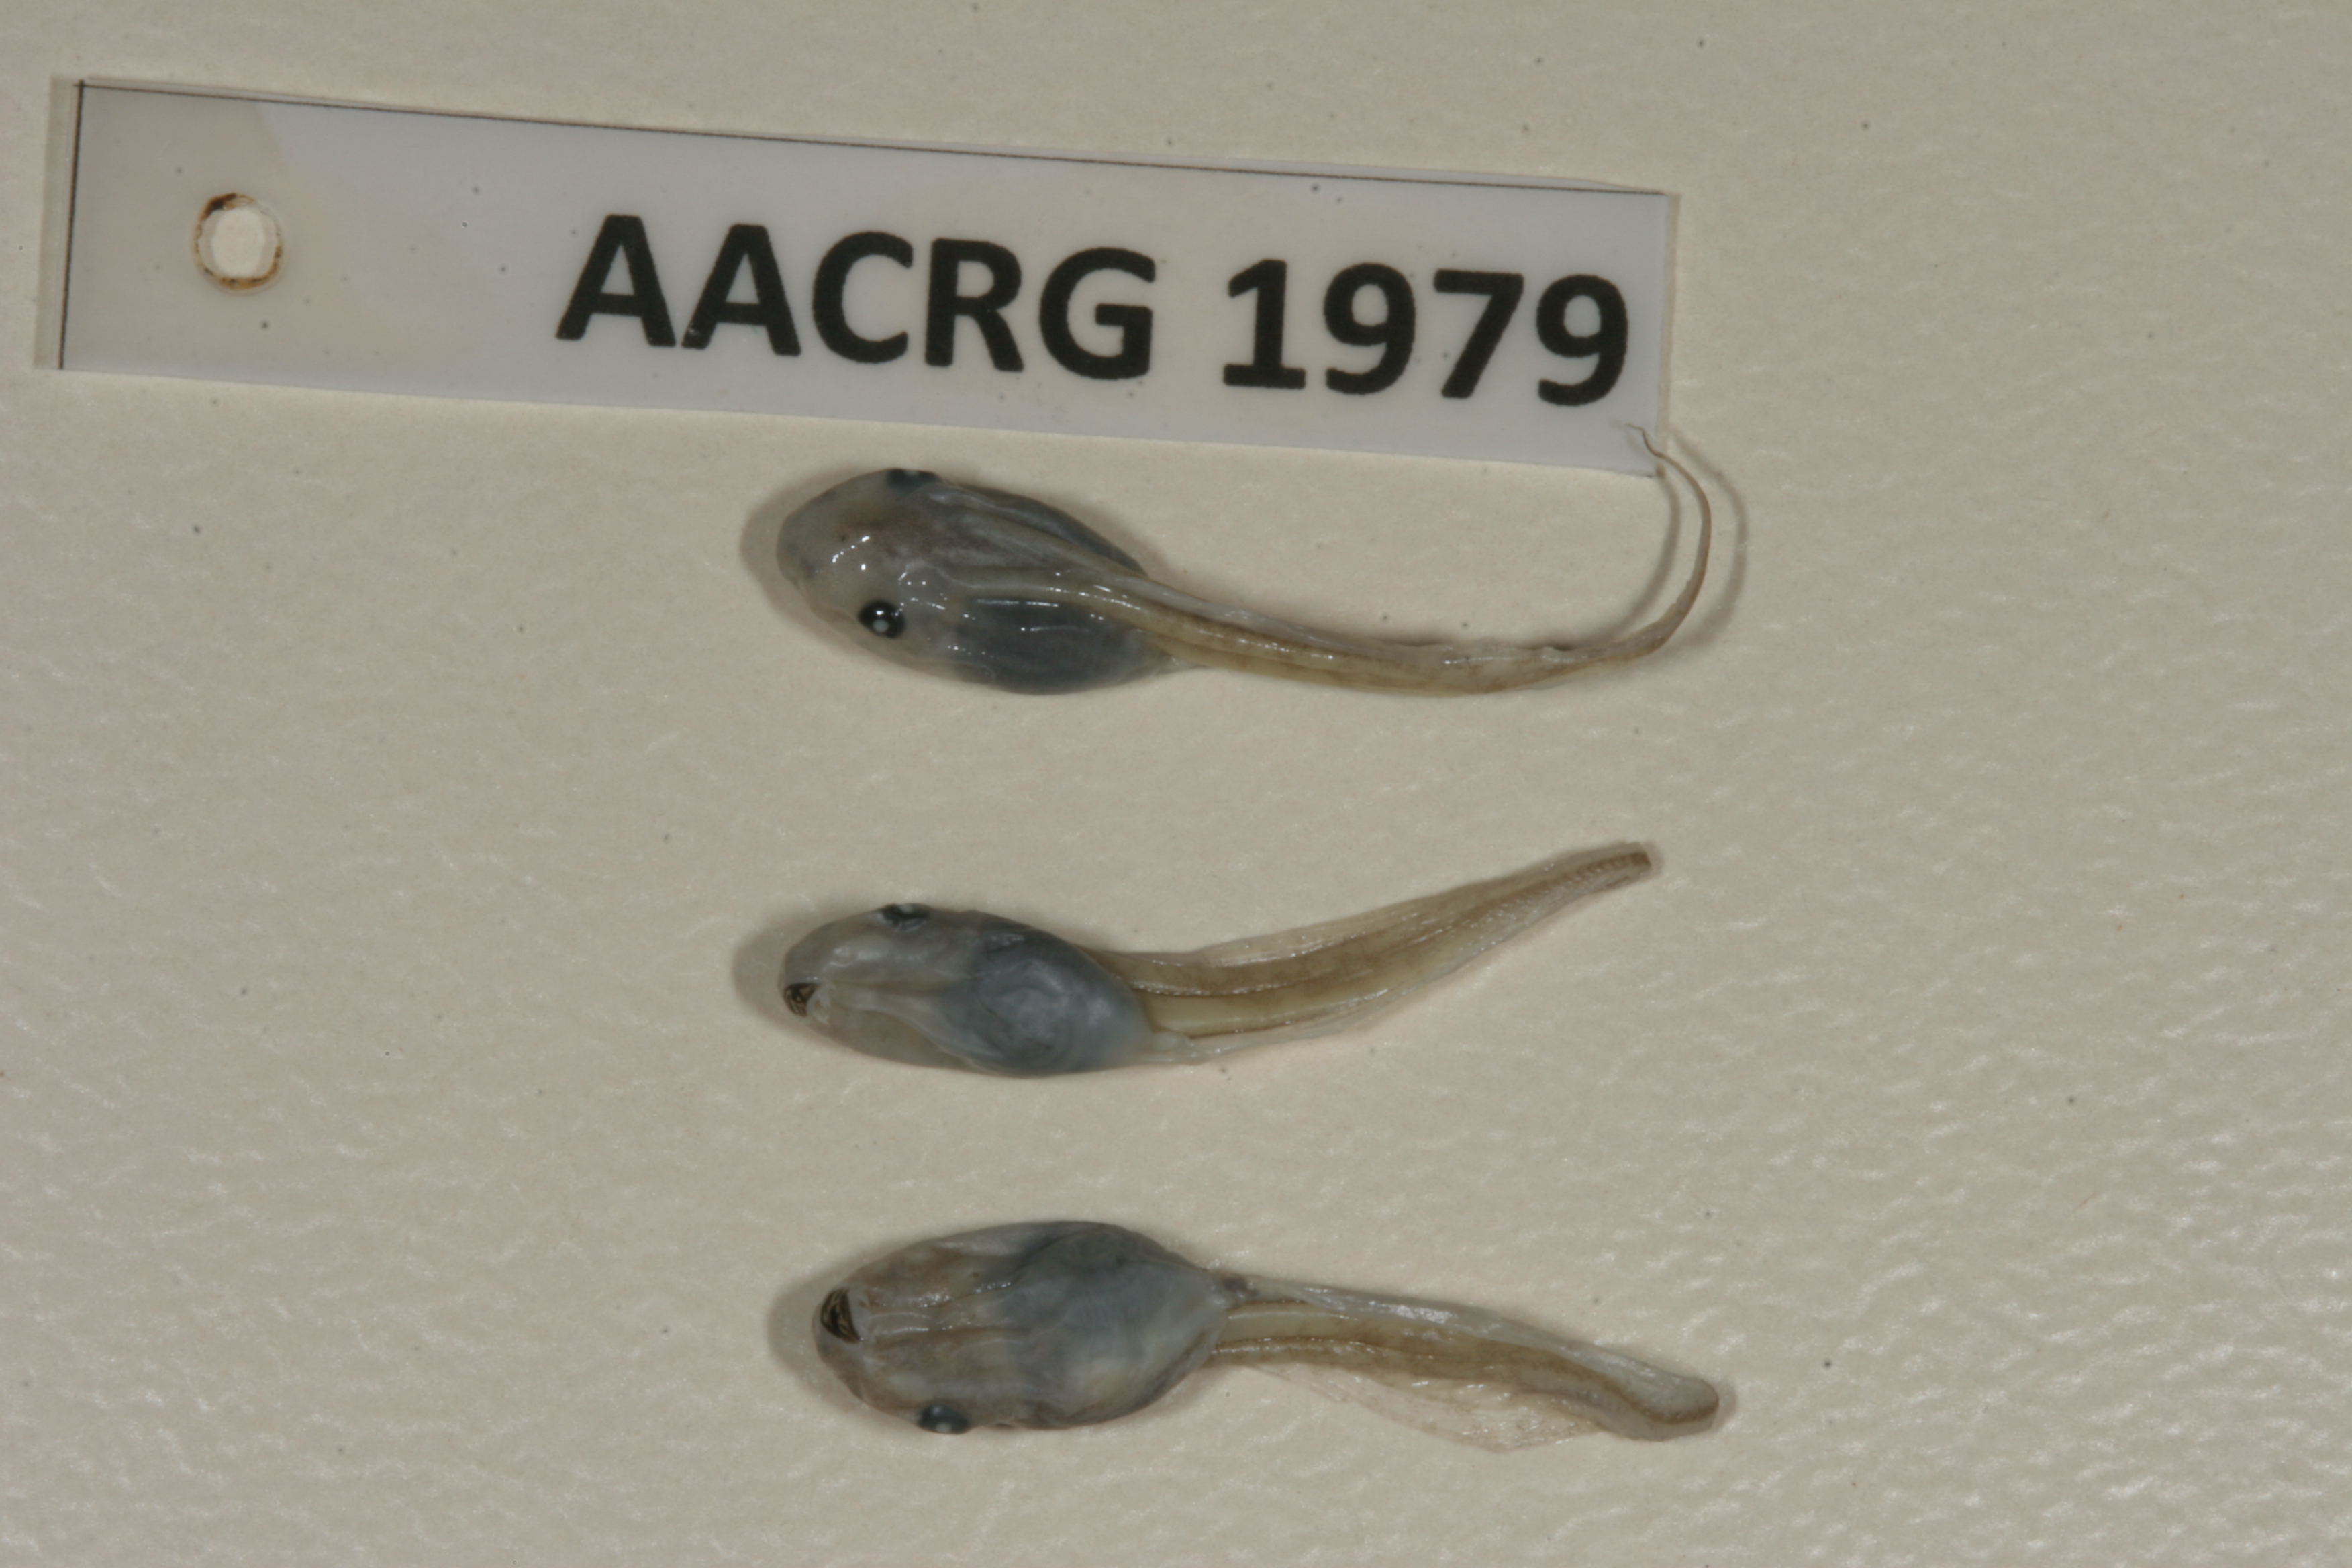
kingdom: Animalia
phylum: Chordata
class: Amphibia
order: Anura
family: Hemisotidae
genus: Hemisus
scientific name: Hemisus marmoratus
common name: Mottled shovel-nosed frog
